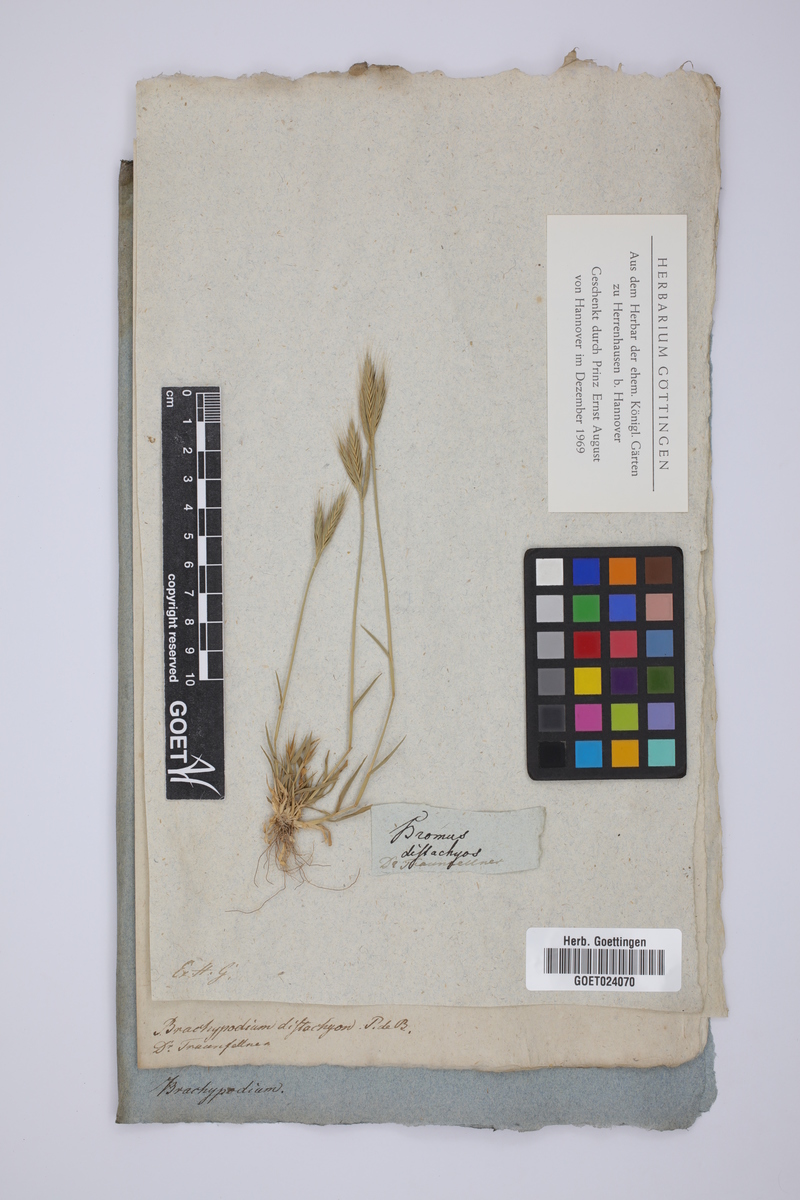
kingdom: Plantae
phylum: Tracheophyta
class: Liliopsida
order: Poales
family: Poaceae
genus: Brachypodium
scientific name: Brachypodium distachyon
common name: Stiff brome
